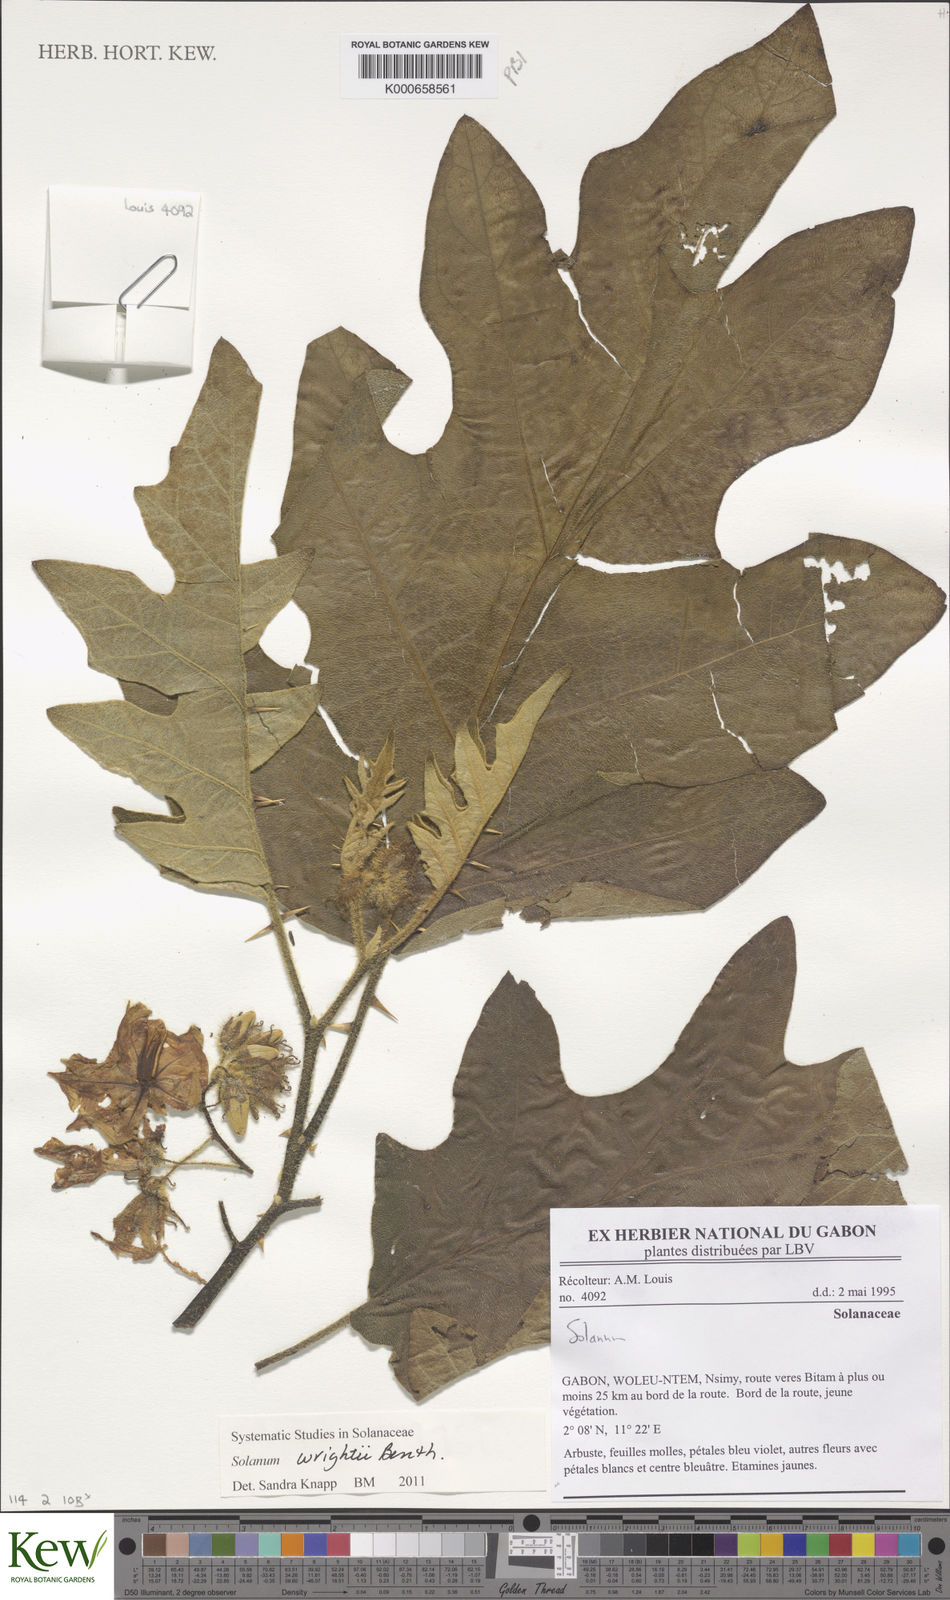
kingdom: Plantae
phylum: Tracheophyta
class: Magnoliopsida
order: Solanales
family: Solanaceae
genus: Solanum
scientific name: Solanum wrightii
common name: Brazilian potato-tree
